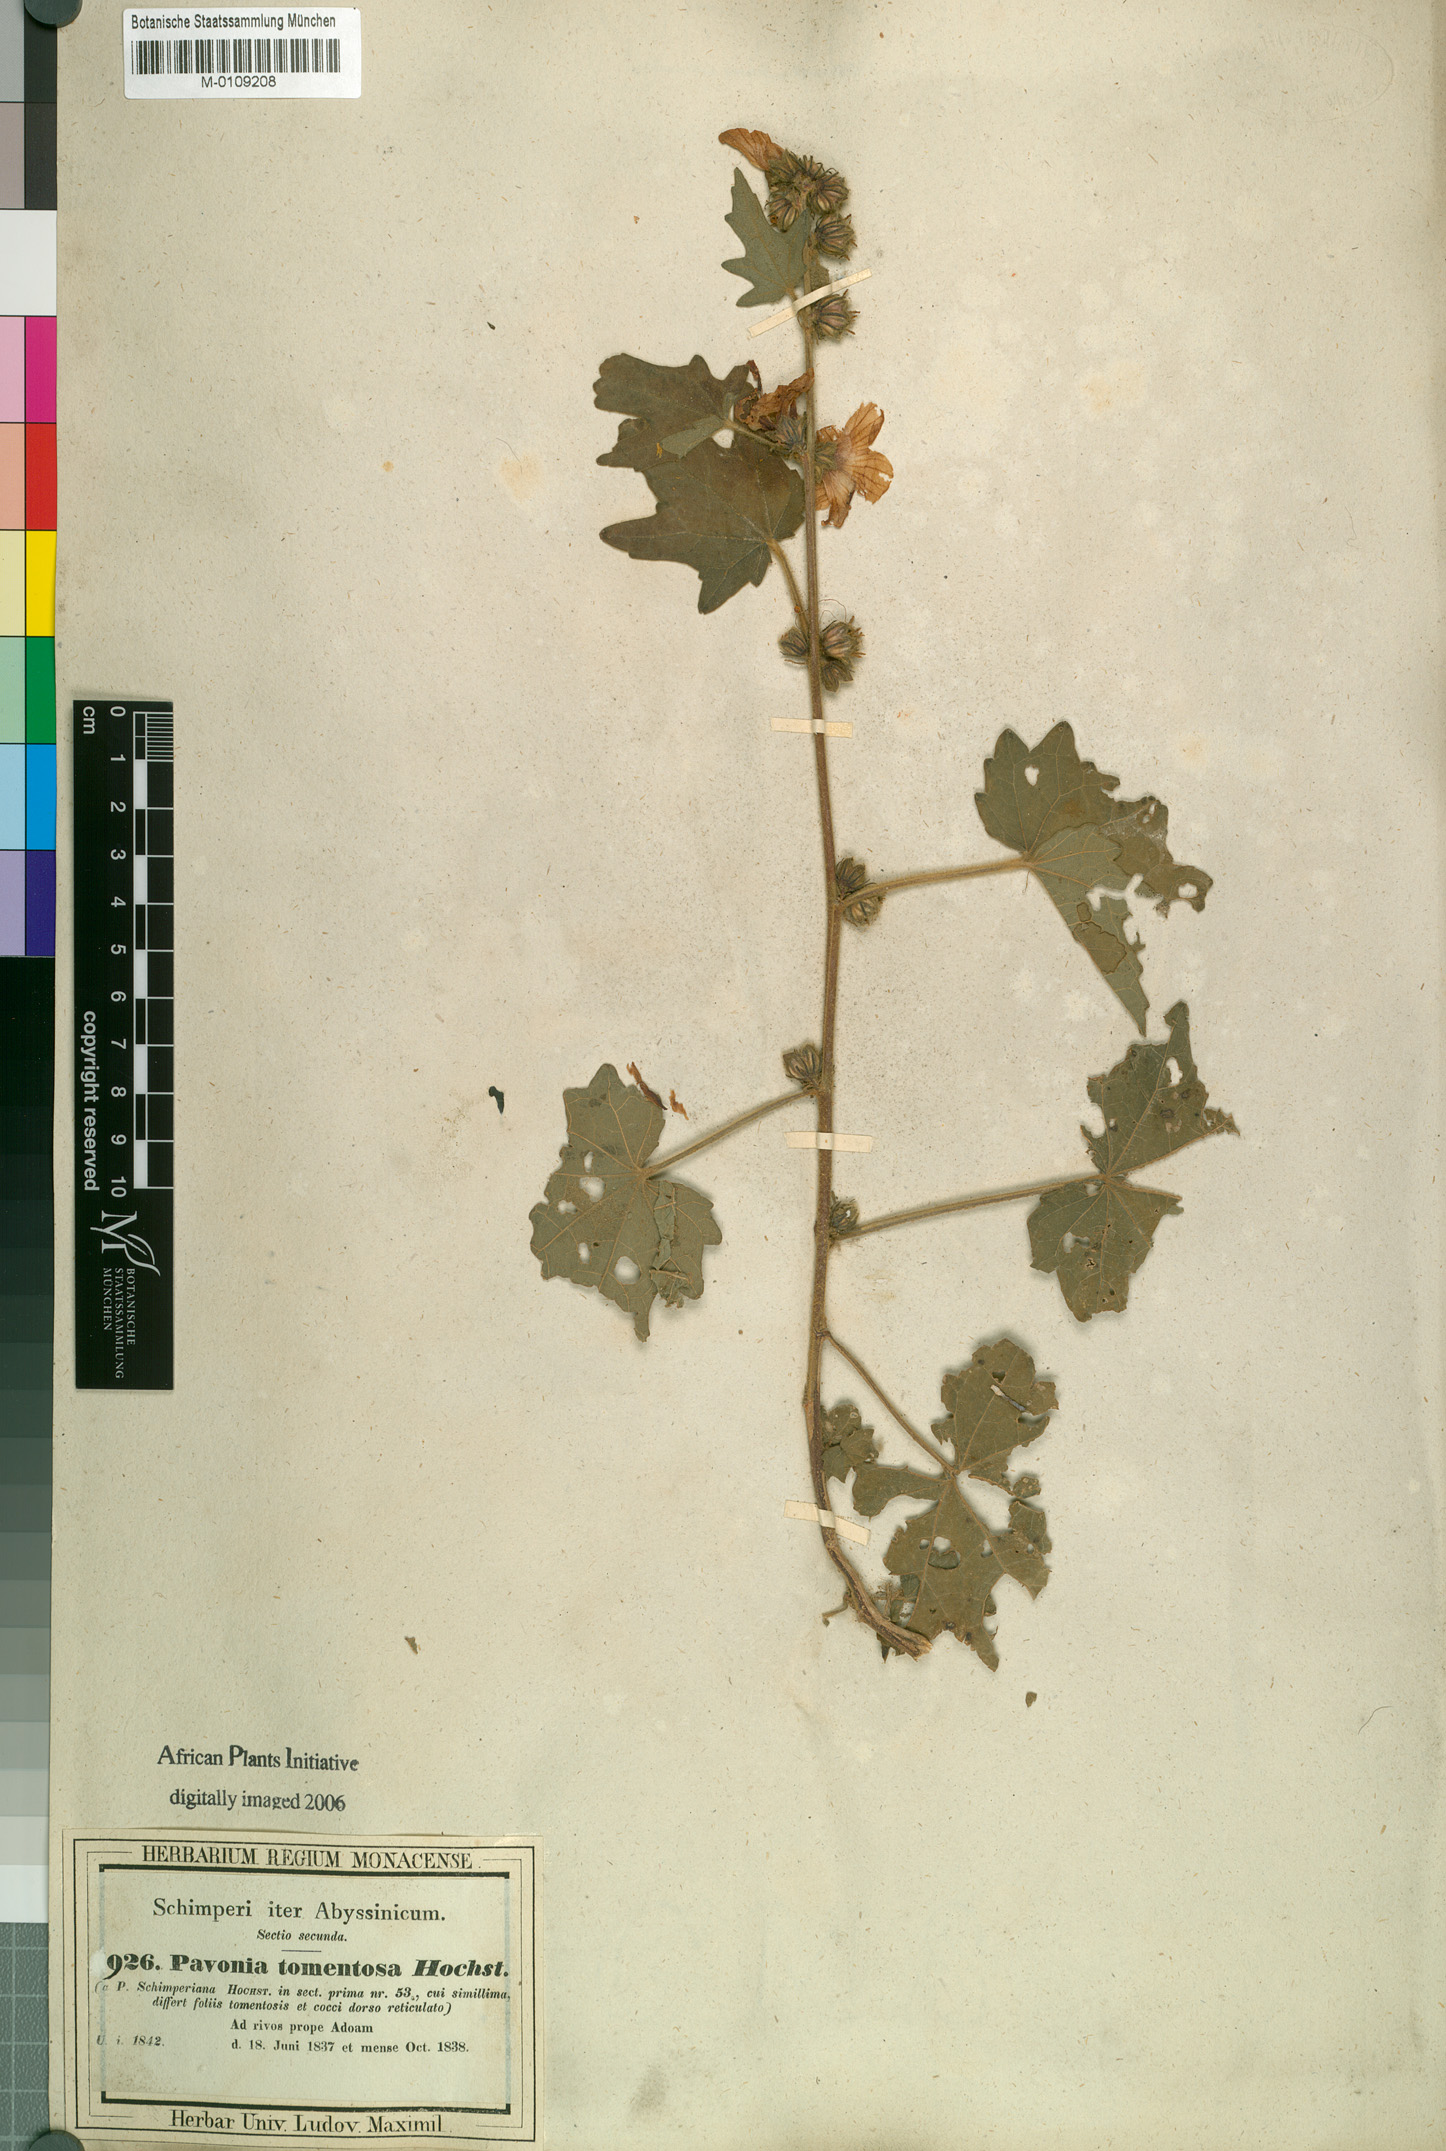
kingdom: Plantae
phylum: Tracheophyta
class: Magnoliopsida
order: Malvales
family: Malvaceae
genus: Pavonia
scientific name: Pavonia urens
